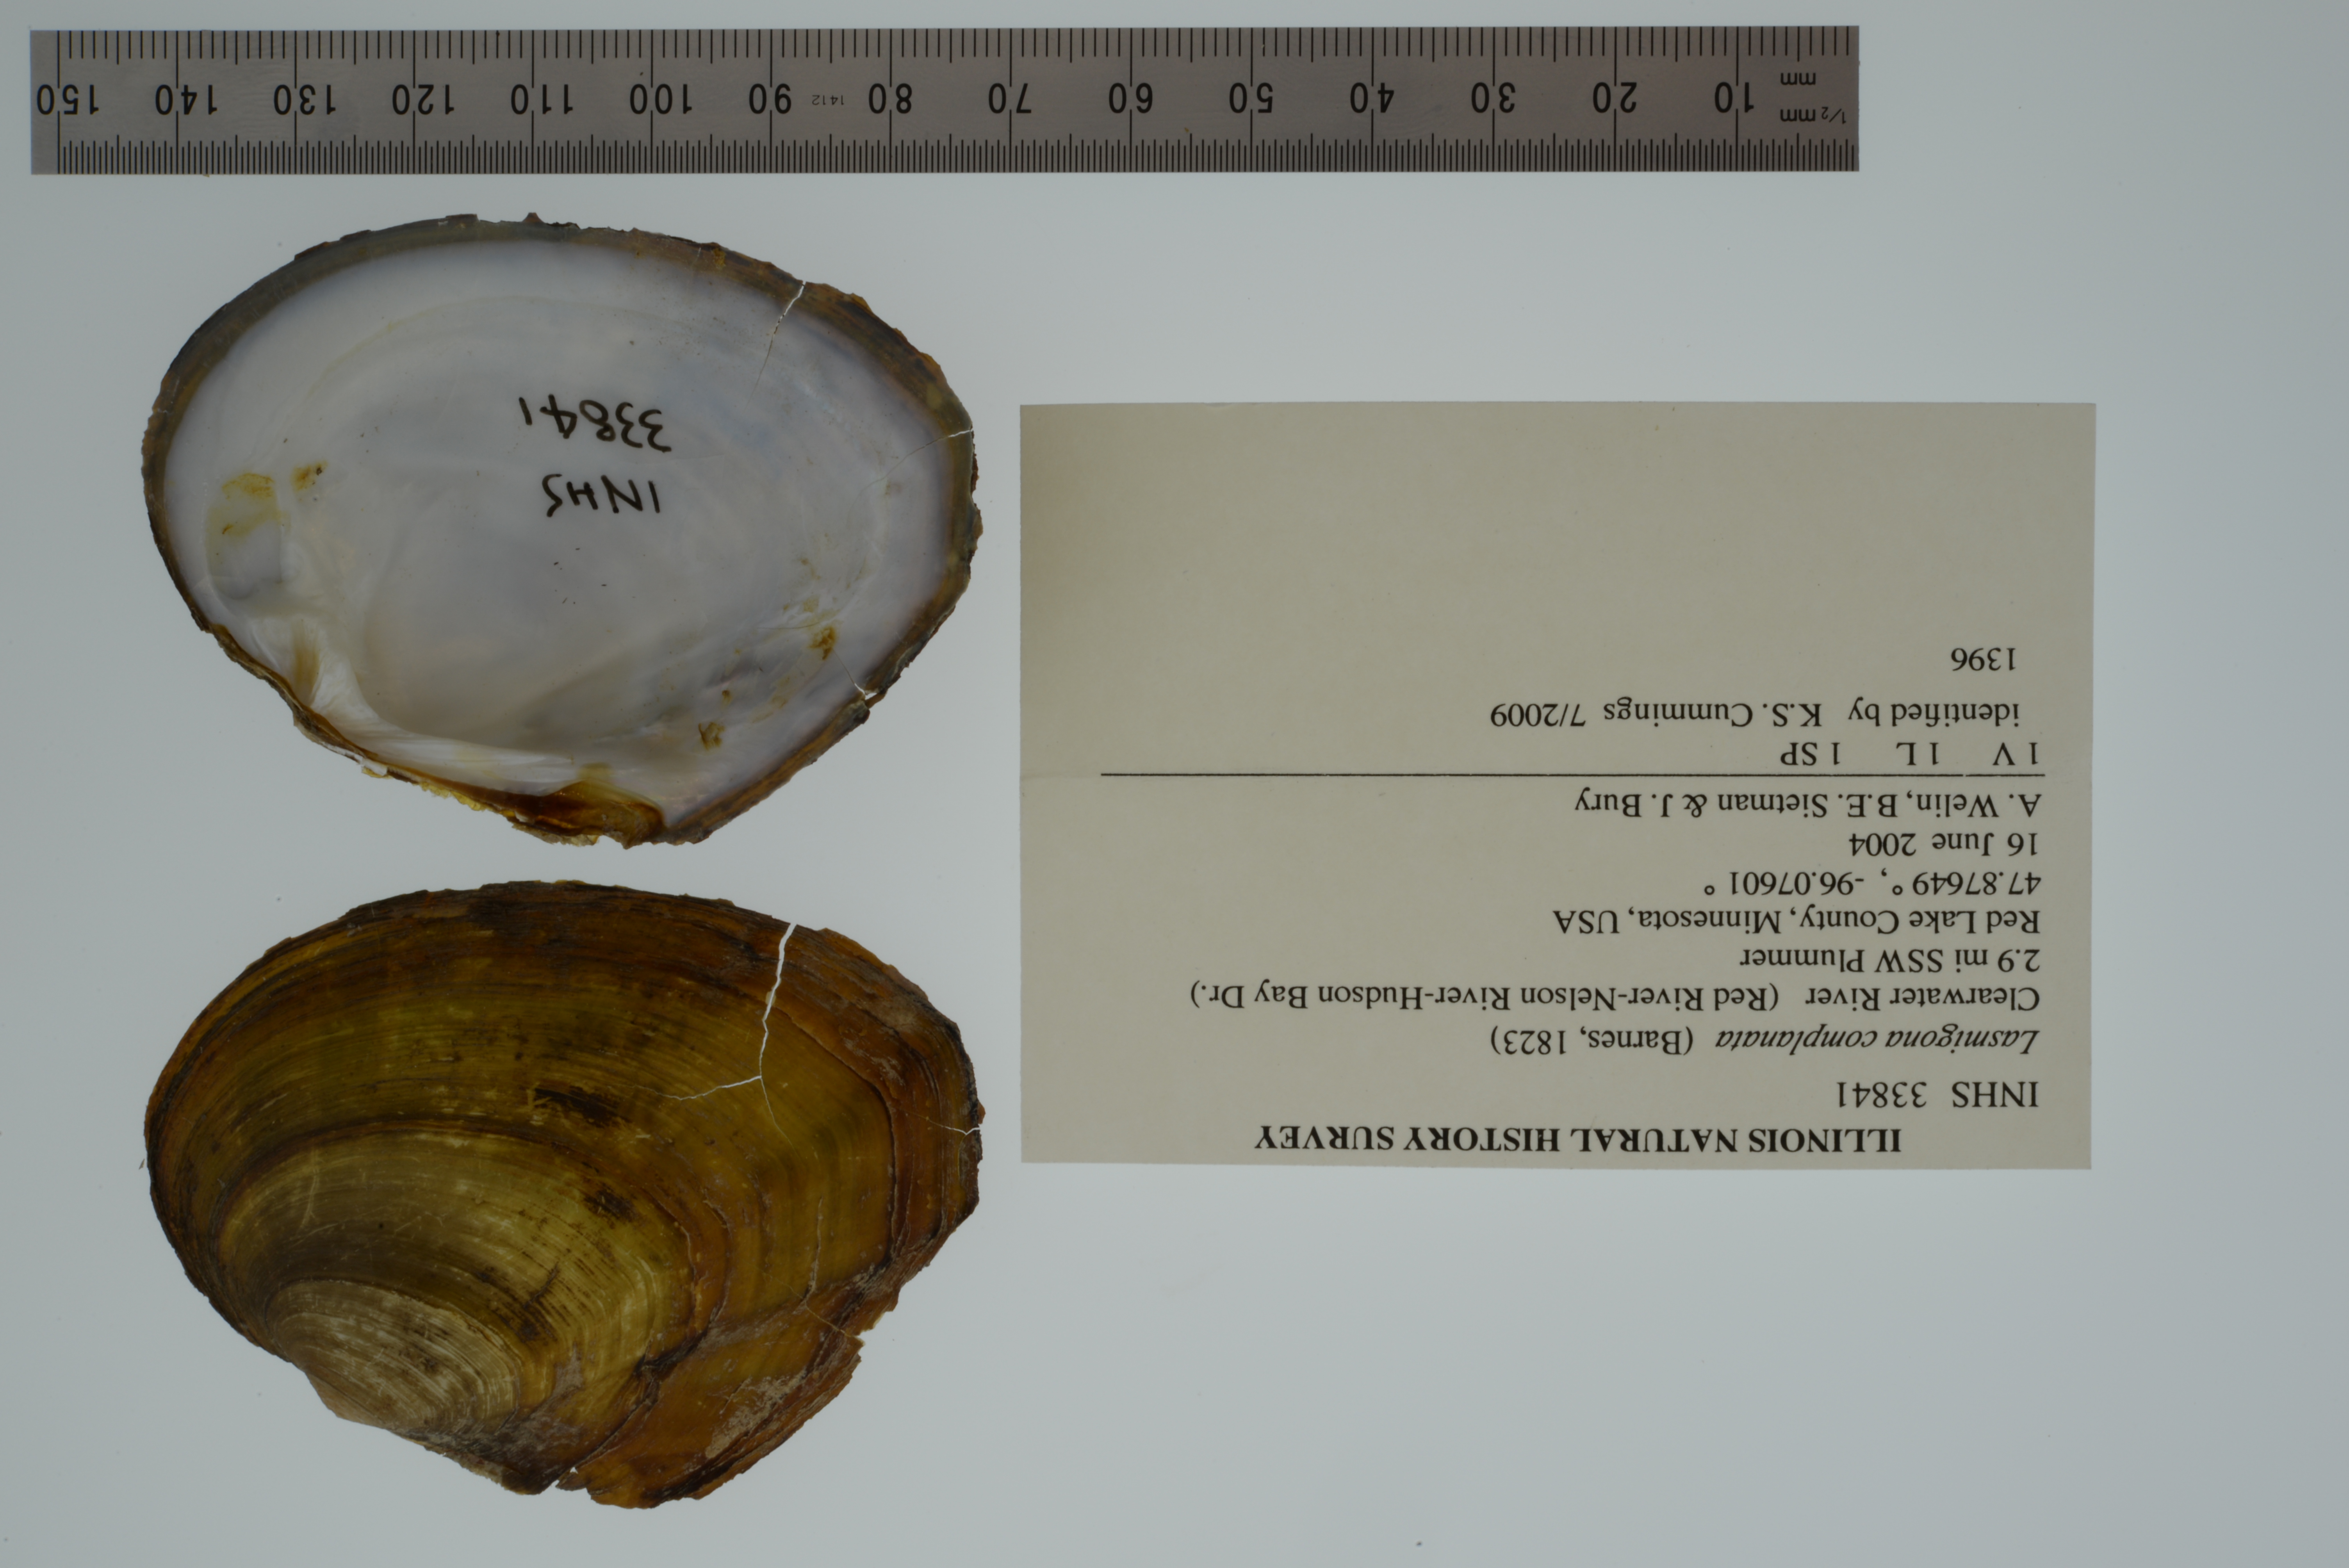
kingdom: Animalia
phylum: Mollusca
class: Bivalvia
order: Unionida
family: Unionidae
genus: Lasmigona
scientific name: Lasmigona complanata
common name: White heelsplitter
